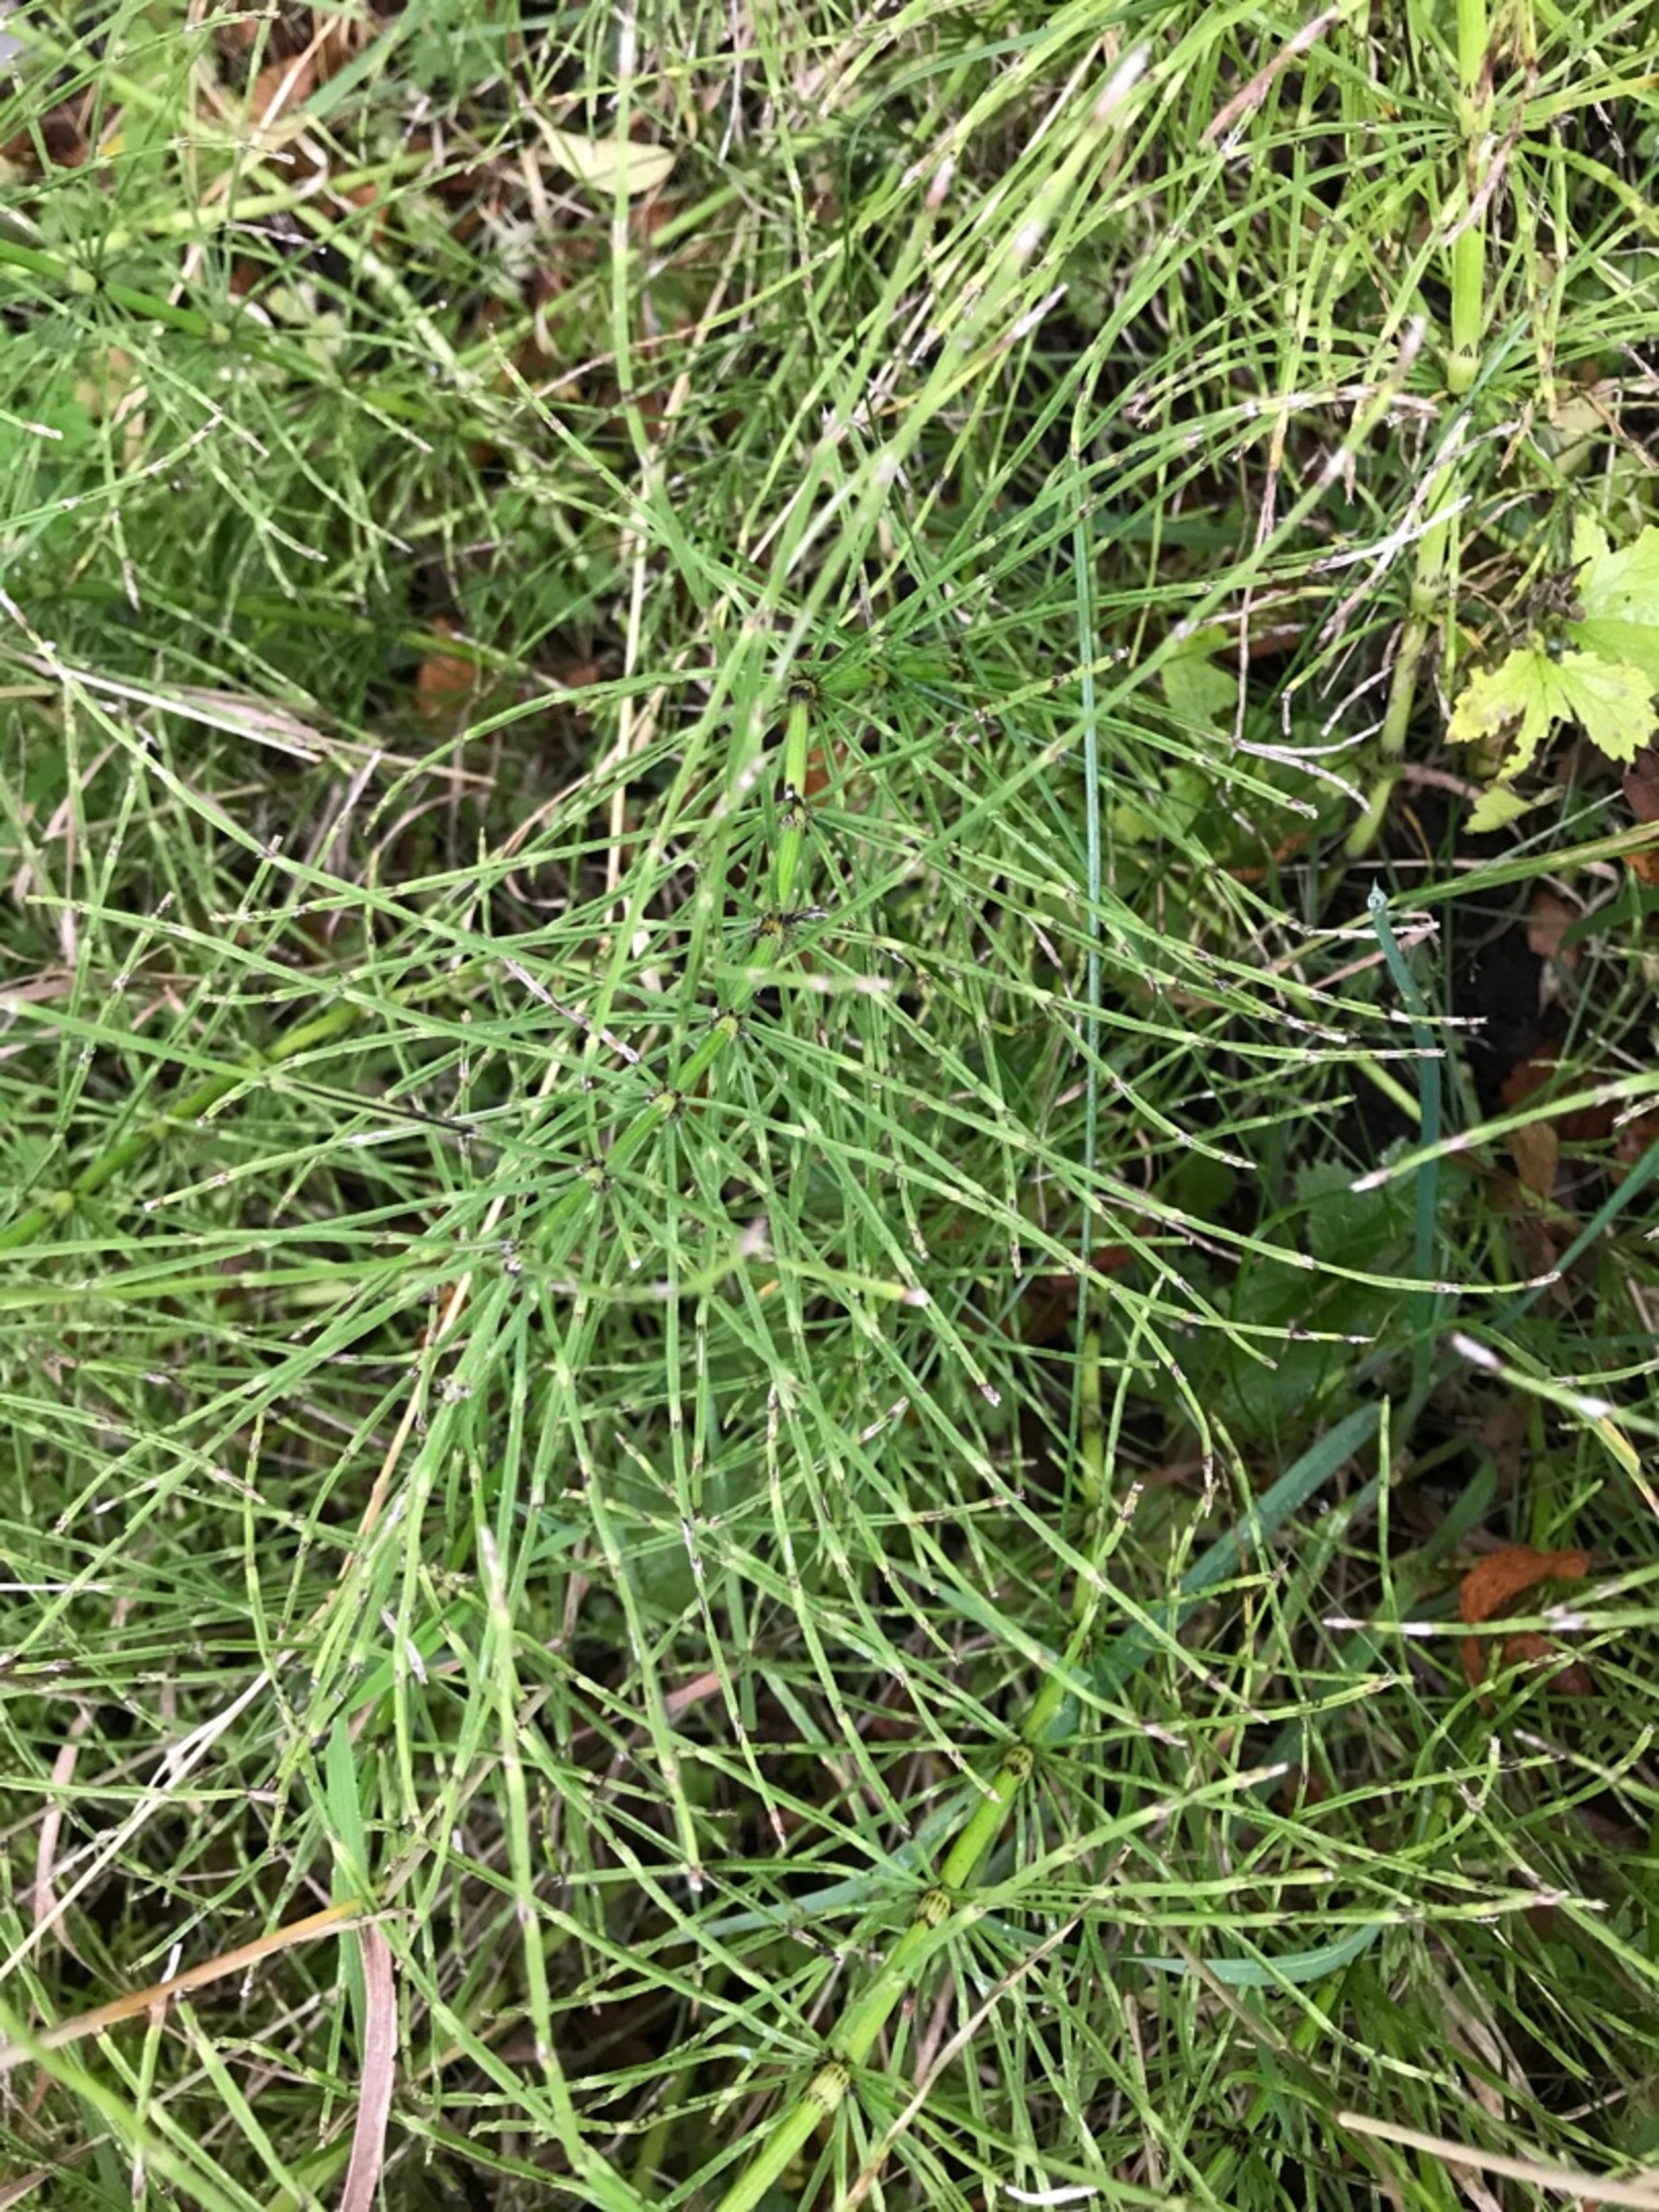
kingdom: Plantae
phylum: Tracheophyta
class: Polypodiopsida
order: Equisetales
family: Equisetaceae
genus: Equisetum
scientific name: Equisetum arvense
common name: Ager-padderok
